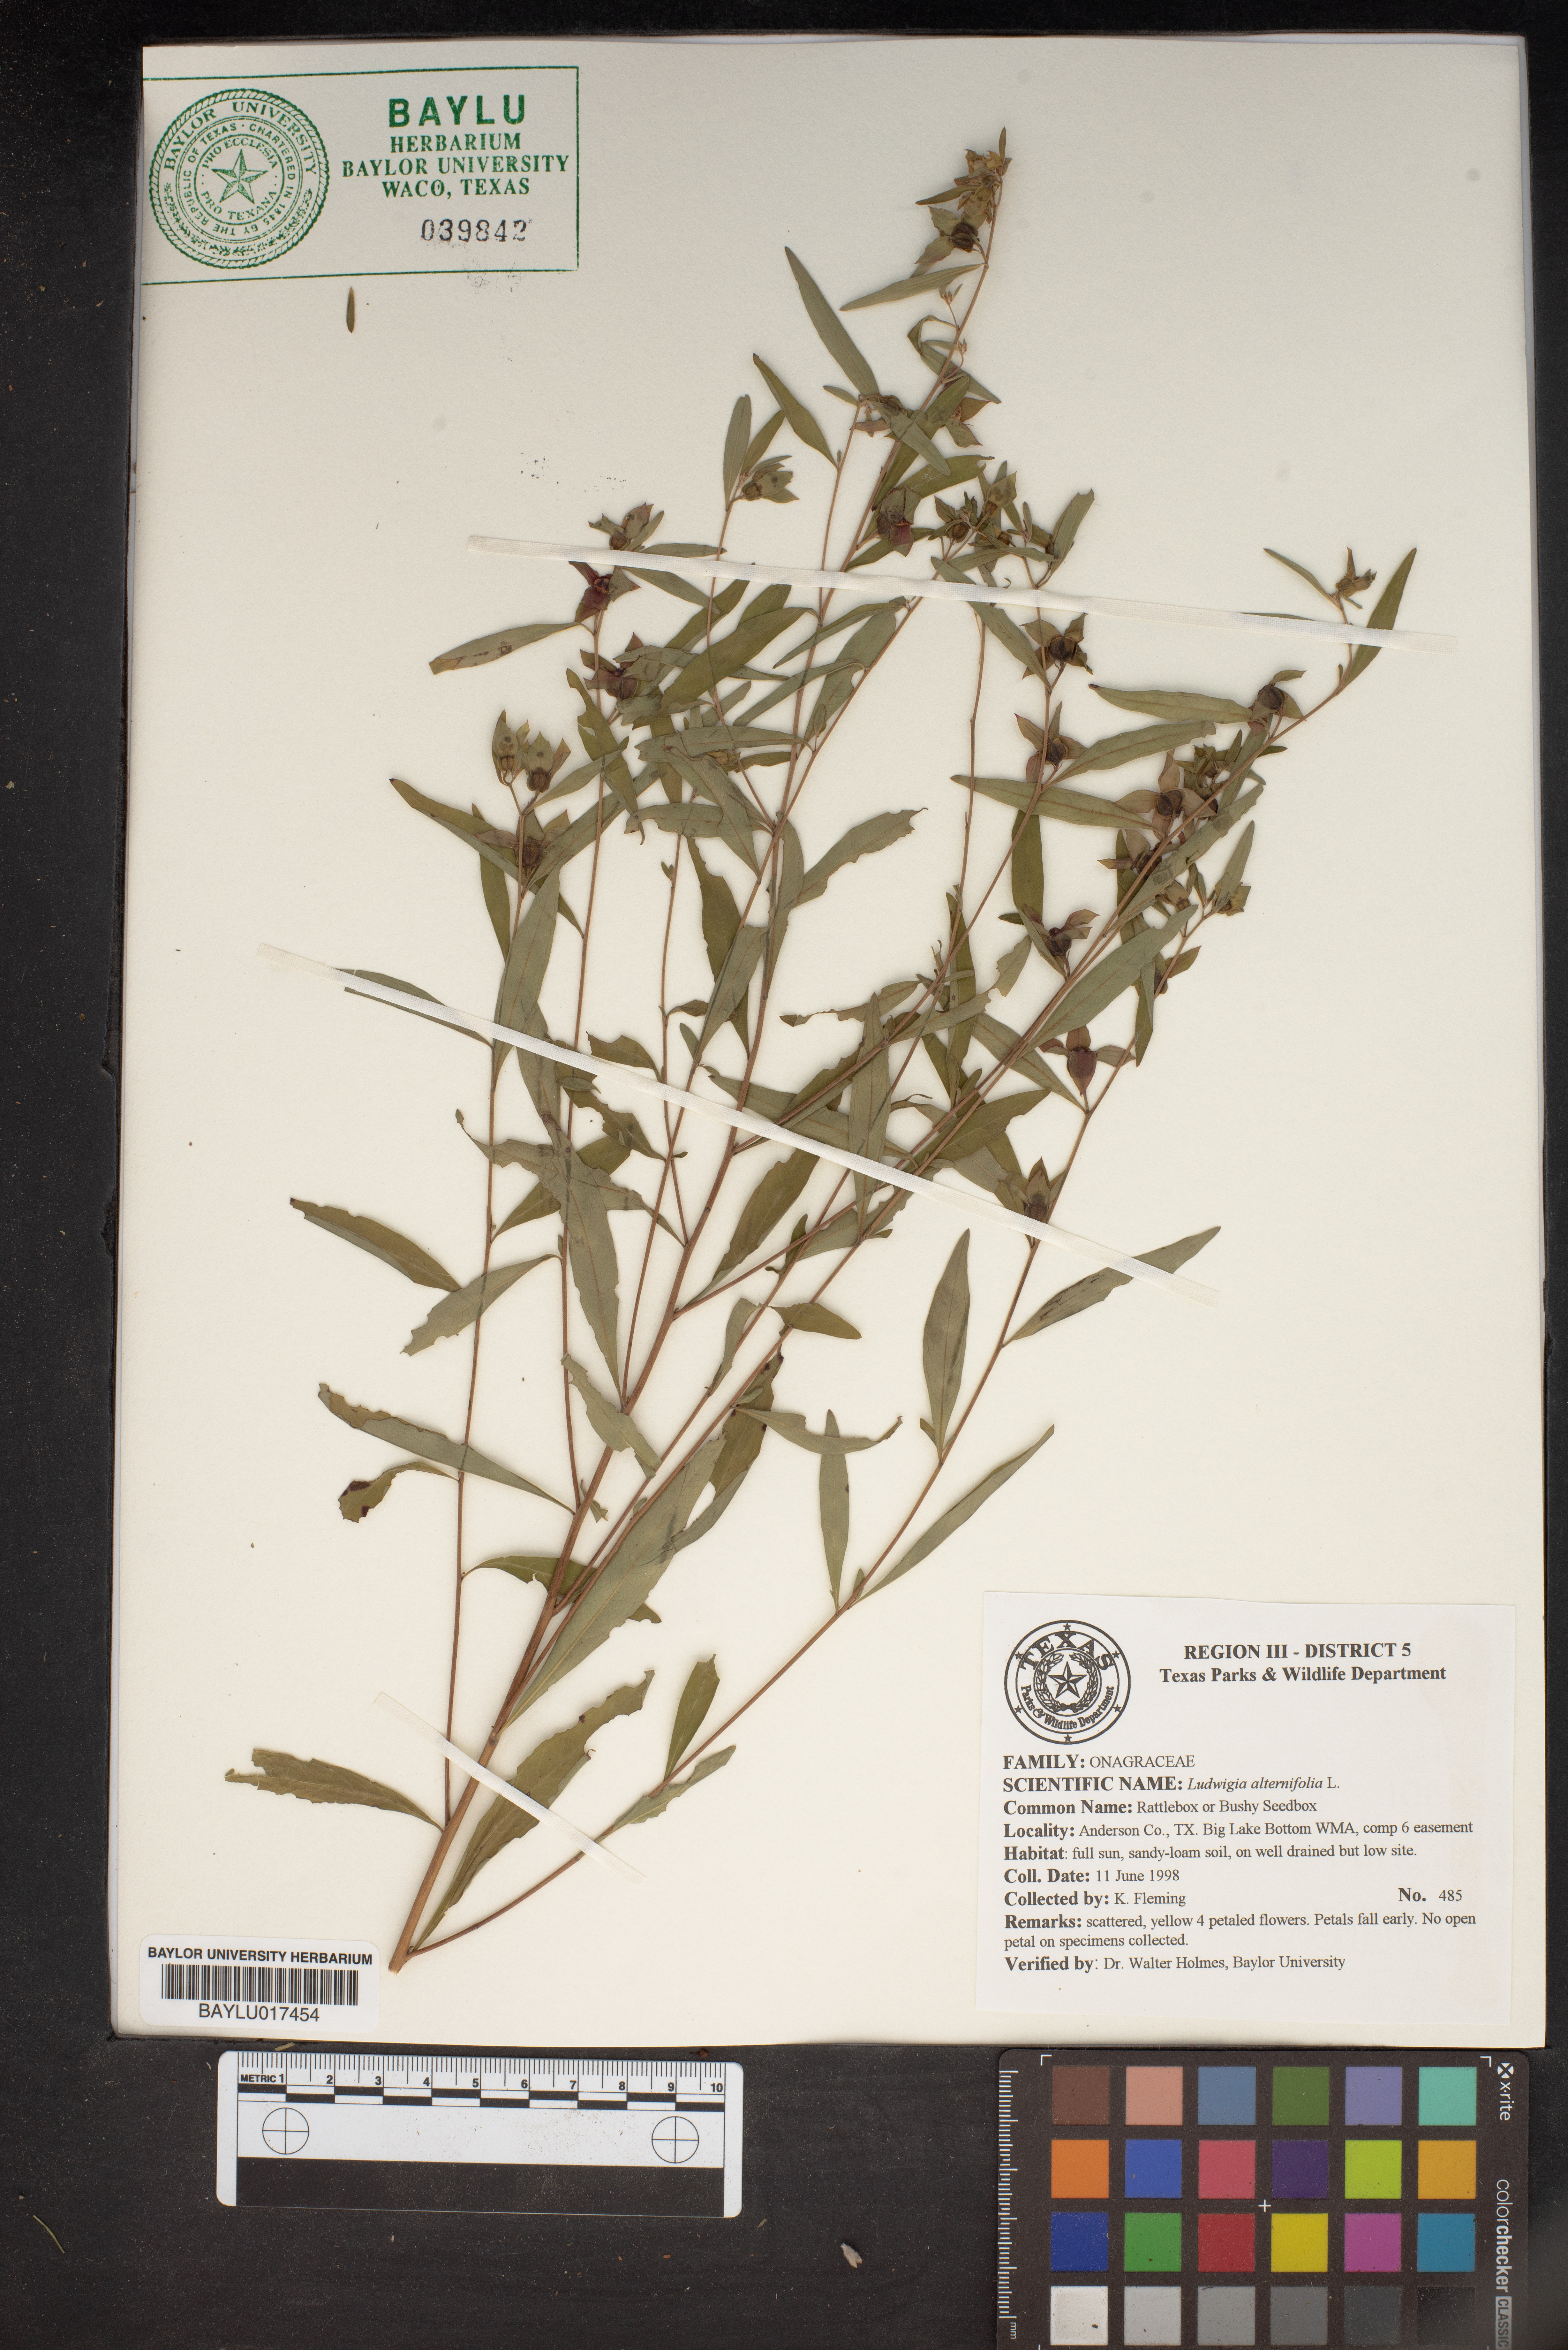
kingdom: Plantae
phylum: Tracheophyta
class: Magnoliopsida
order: Myrtales
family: Onagraceae
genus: Ludwigia
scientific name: Ludwigia alternifolia
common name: Rattlebox
